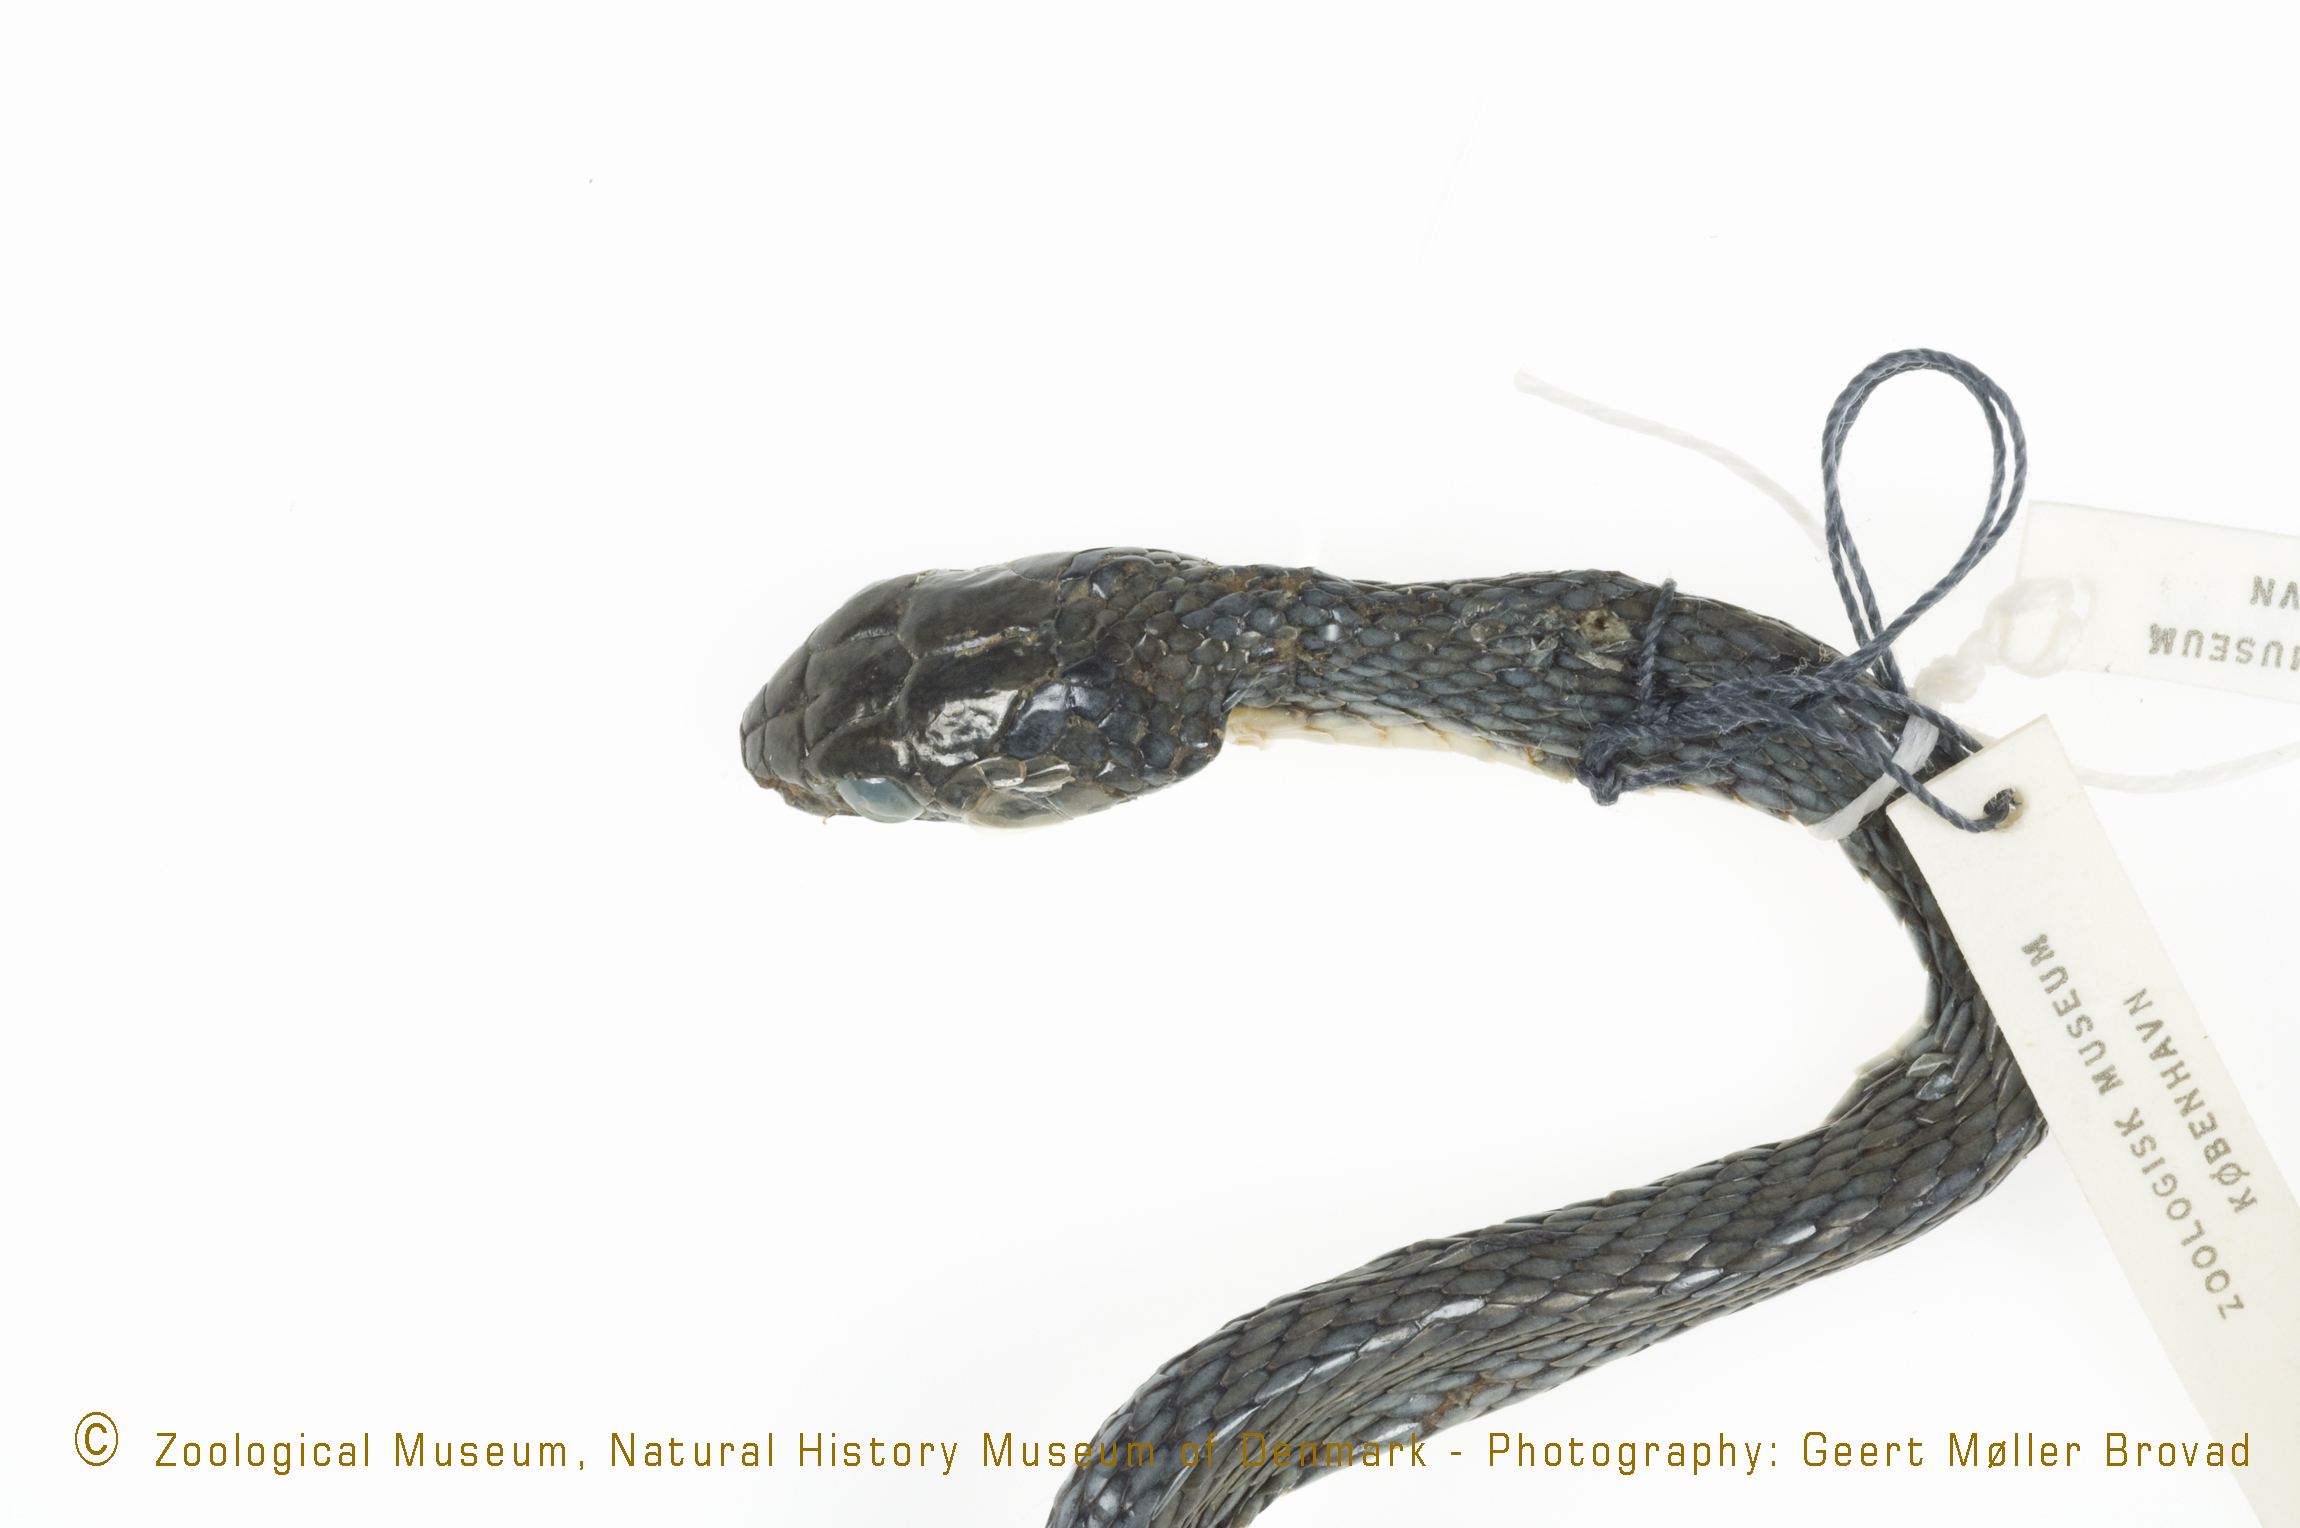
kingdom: Animalia
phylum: Chordata
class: Squamata
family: Colubridae
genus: Dipsadoboa
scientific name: Dipsadoboa
